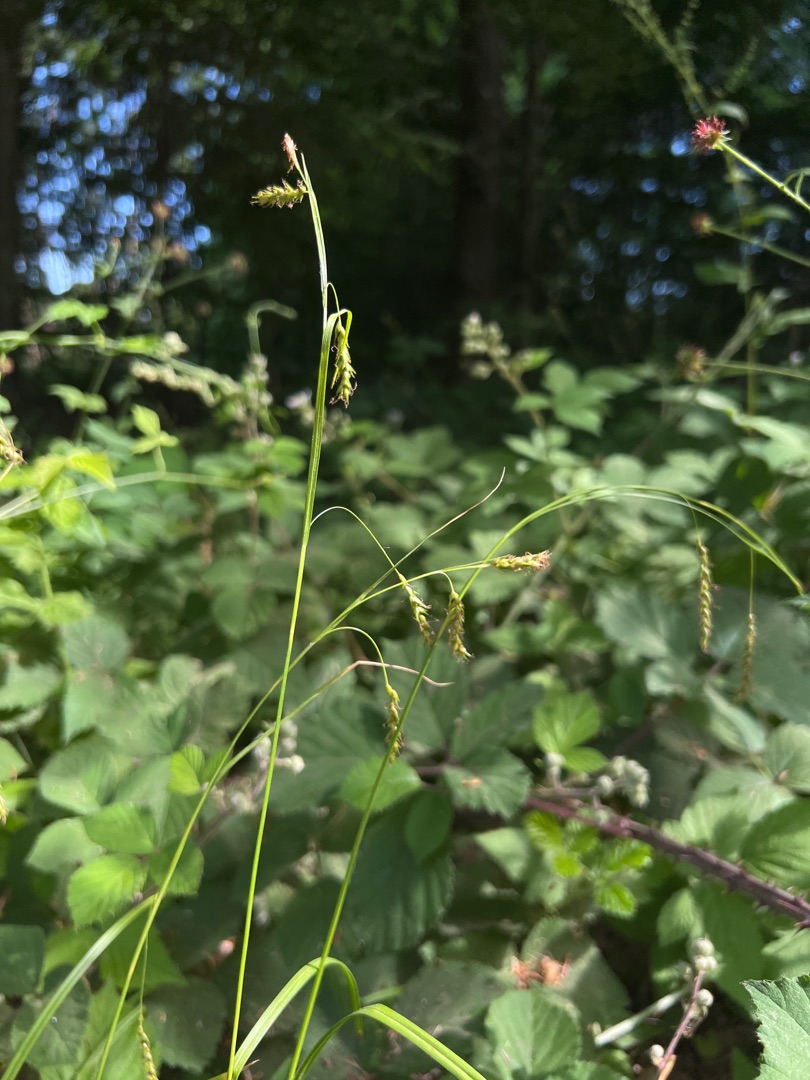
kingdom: Plantae
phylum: Tracheophyta
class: Liliopsida
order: Poales
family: Cyperaceae
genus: Carex
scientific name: Carex sylvatica
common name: Skov-star
